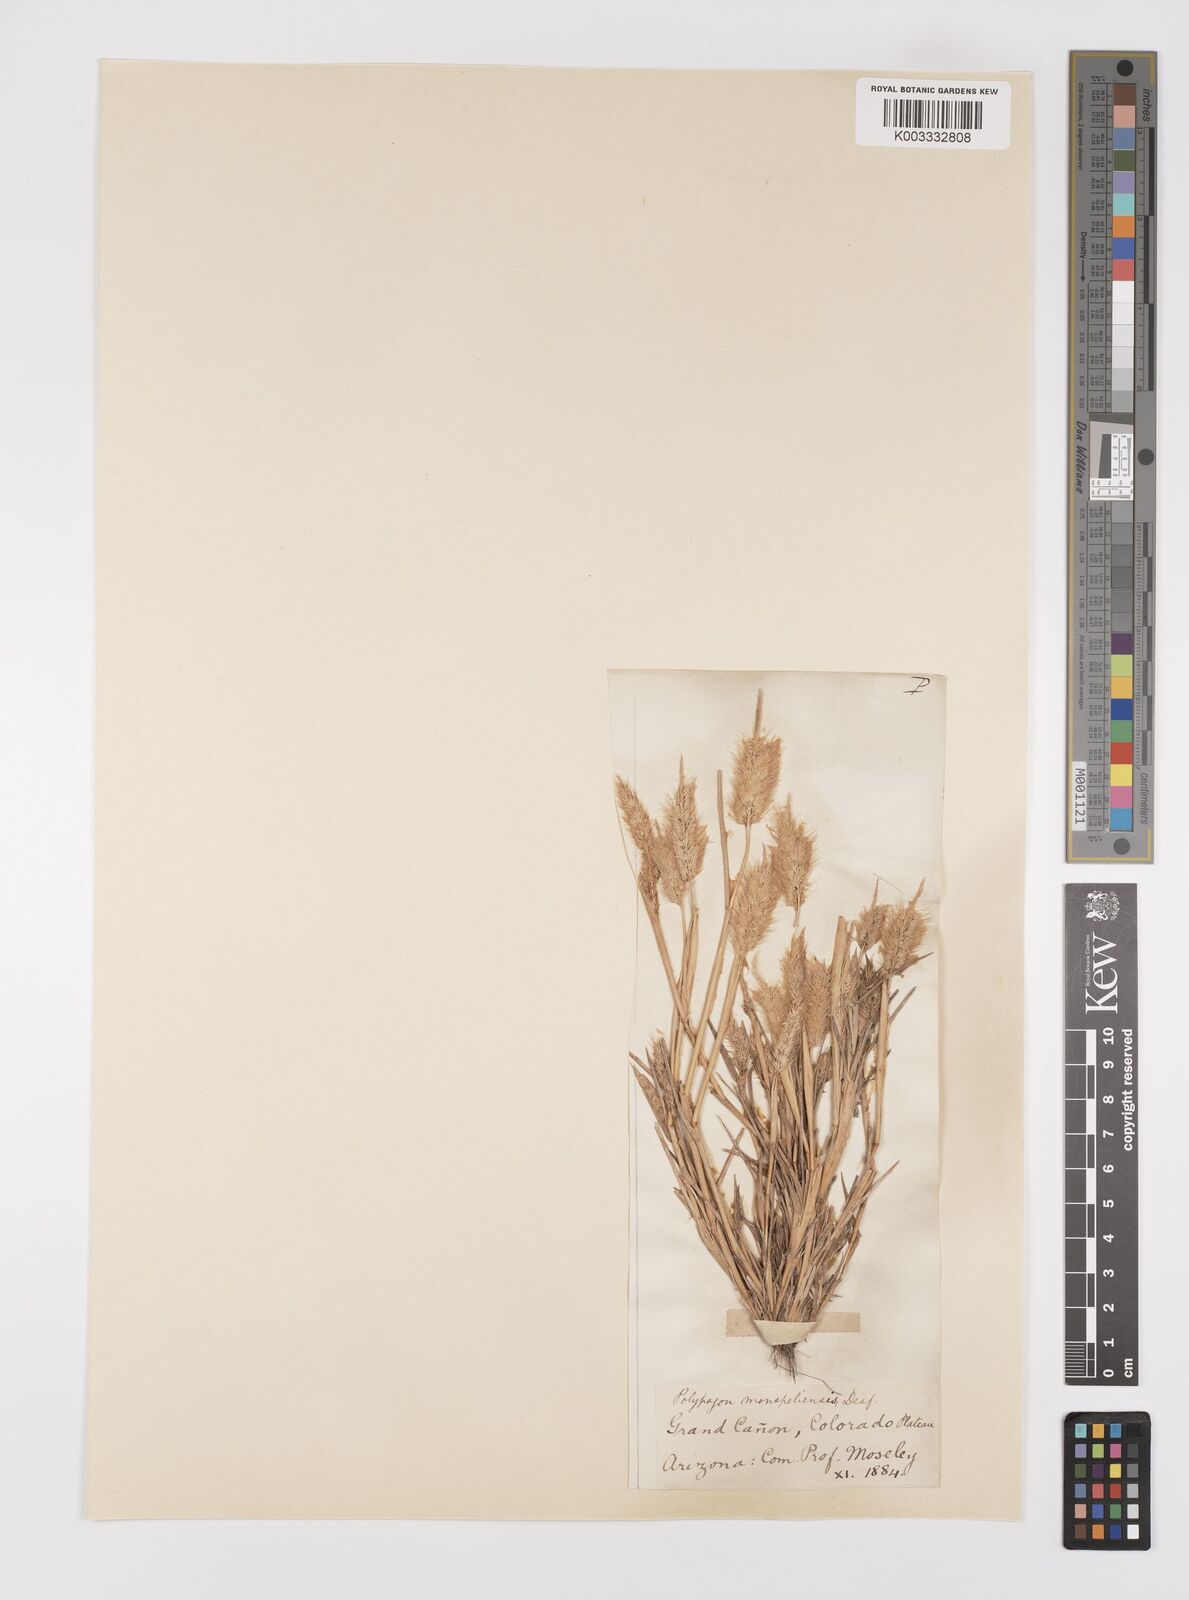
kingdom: Plantae
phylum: Tracheophyta
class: Liliopsida
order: Poales
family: Poaceae
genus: Polypogon
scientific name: Polypogon monspeliensis
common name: Annual rabbitsfoot grass
